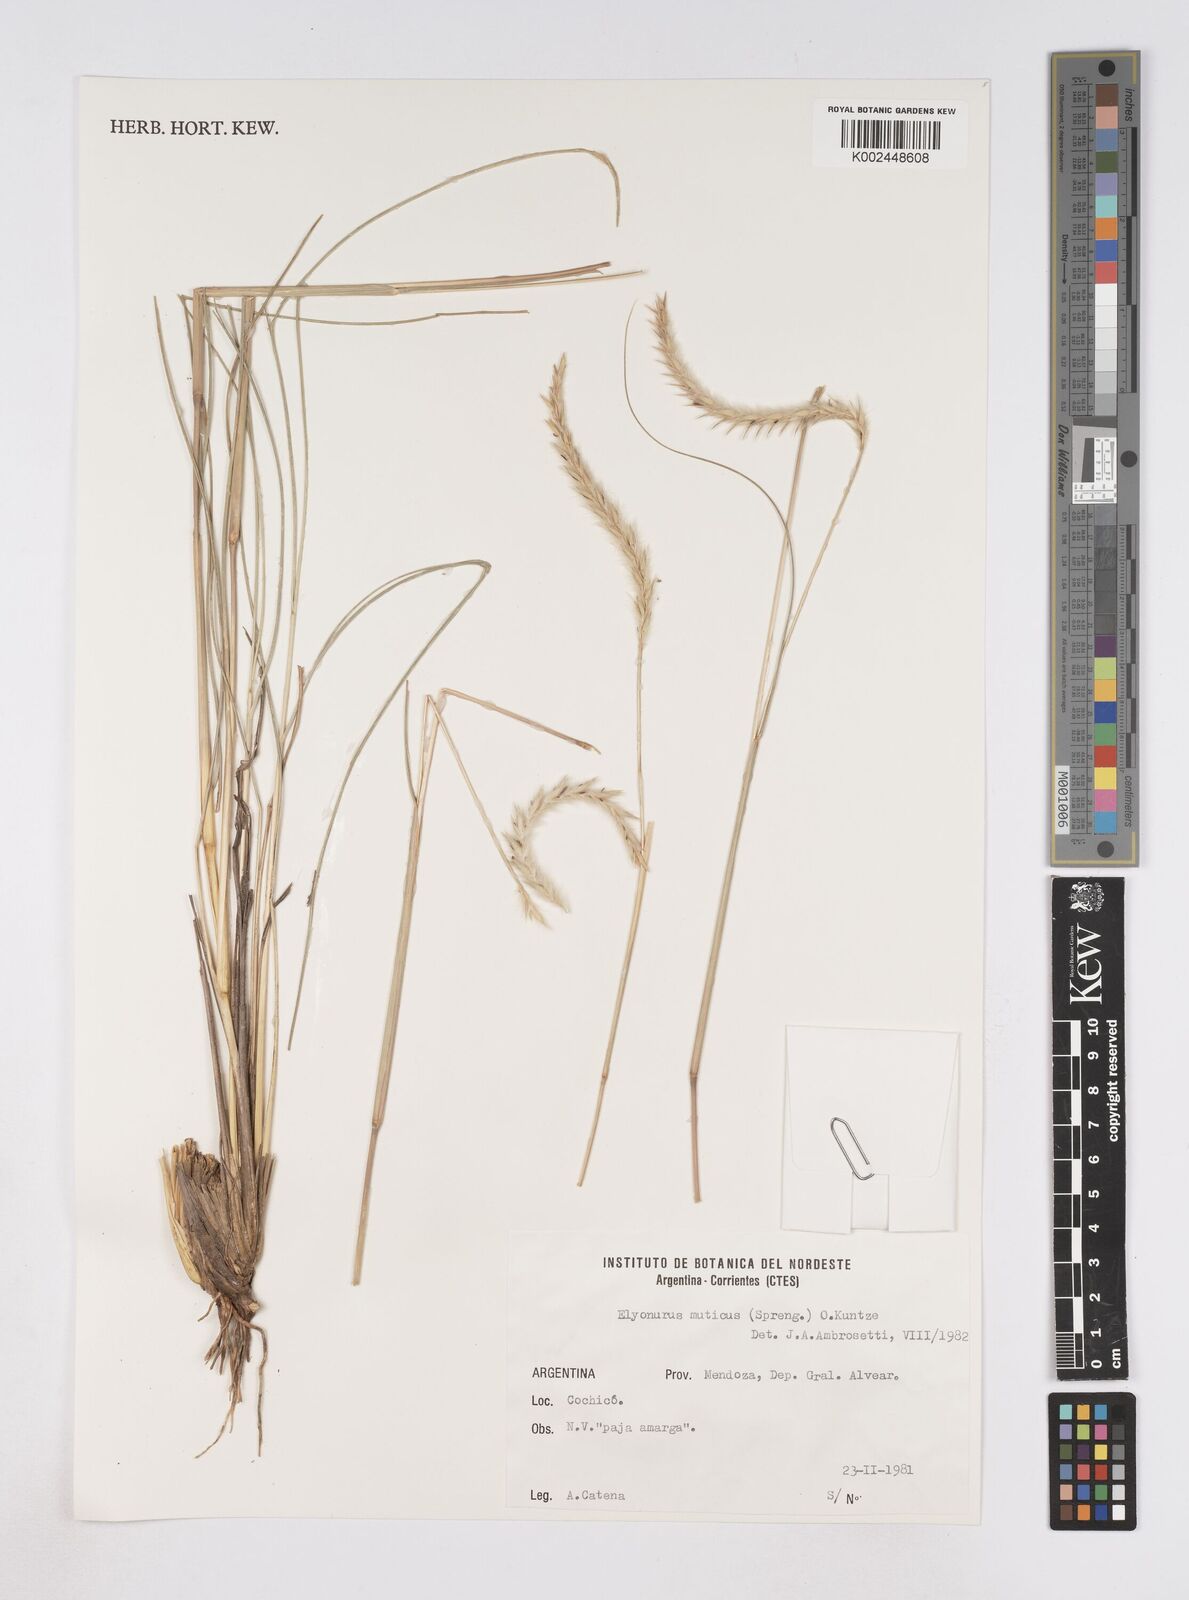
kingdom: Plantae
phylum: Tracheophyta
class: Liliopsida
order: Poales
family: Poaceae
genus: Elionurus
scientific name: Elionurus muticus
